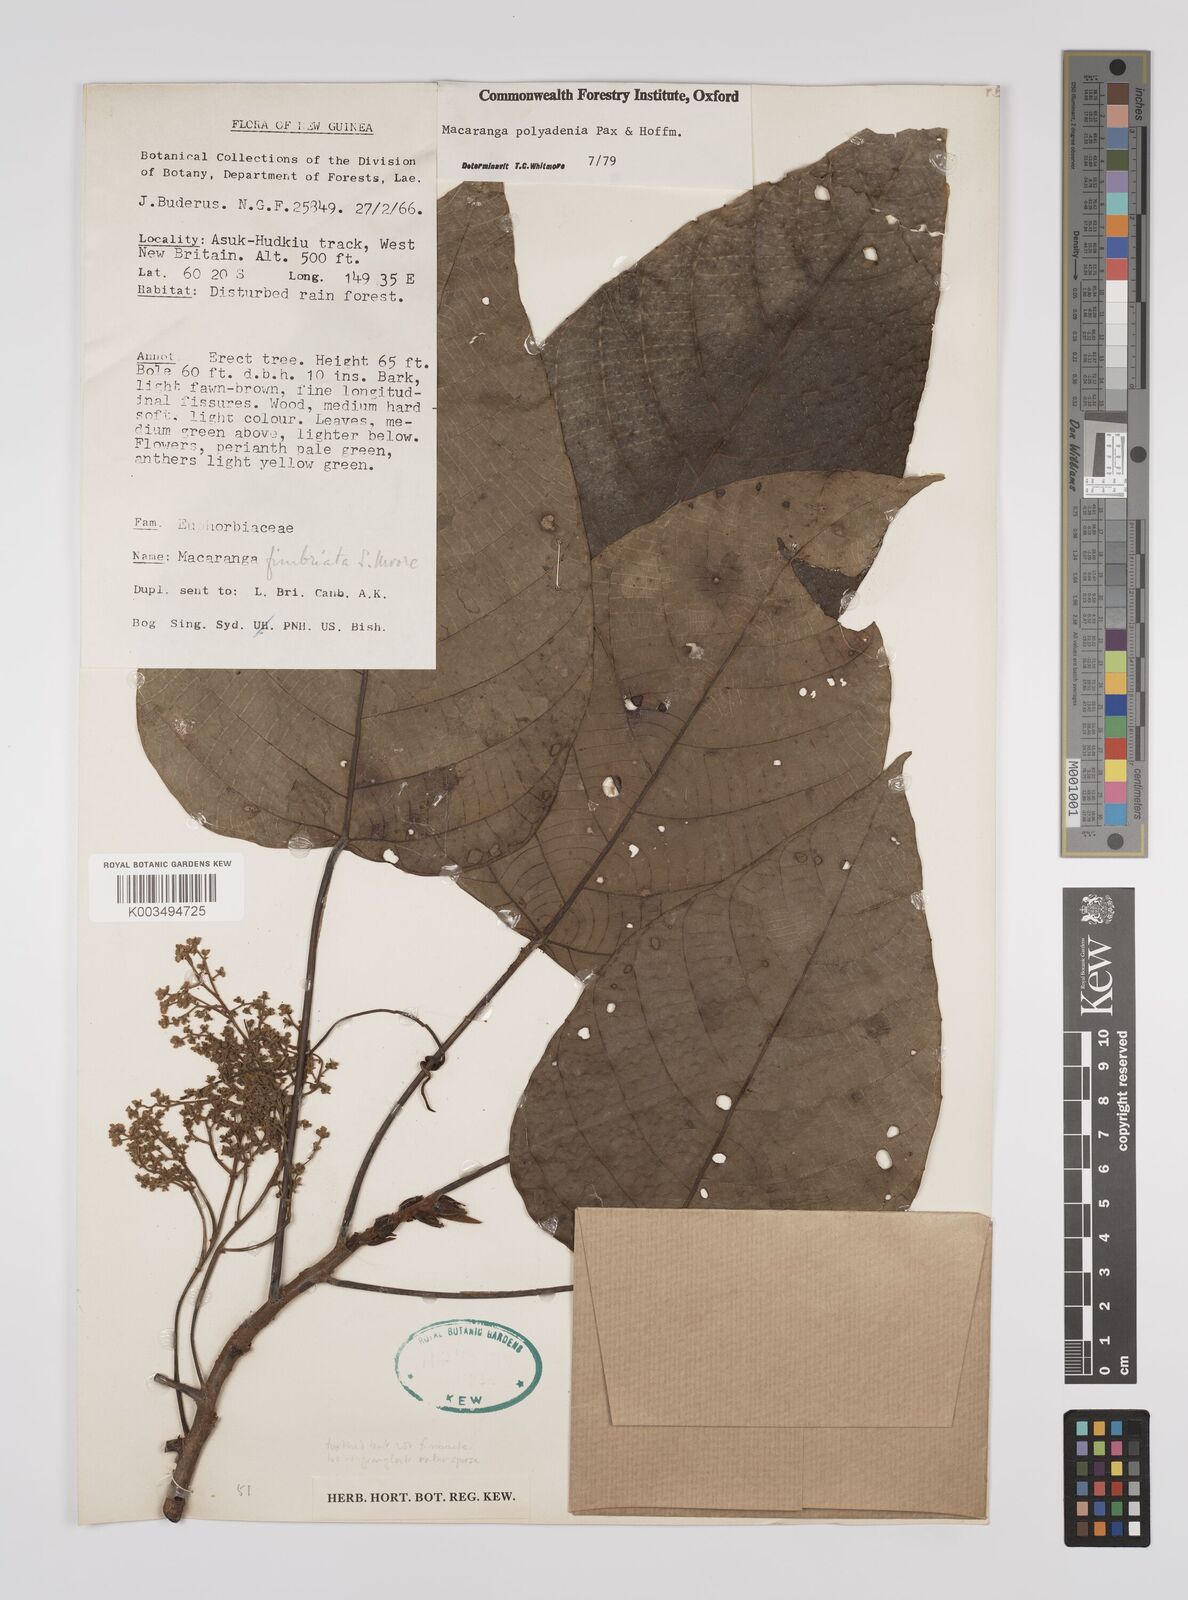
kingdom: Plantae
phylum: Tracheophyta
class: Magnoliopsida
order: Malpighiales
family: Euphorbiaceae
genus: Macaranga
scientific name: Macaranga polyadenia
